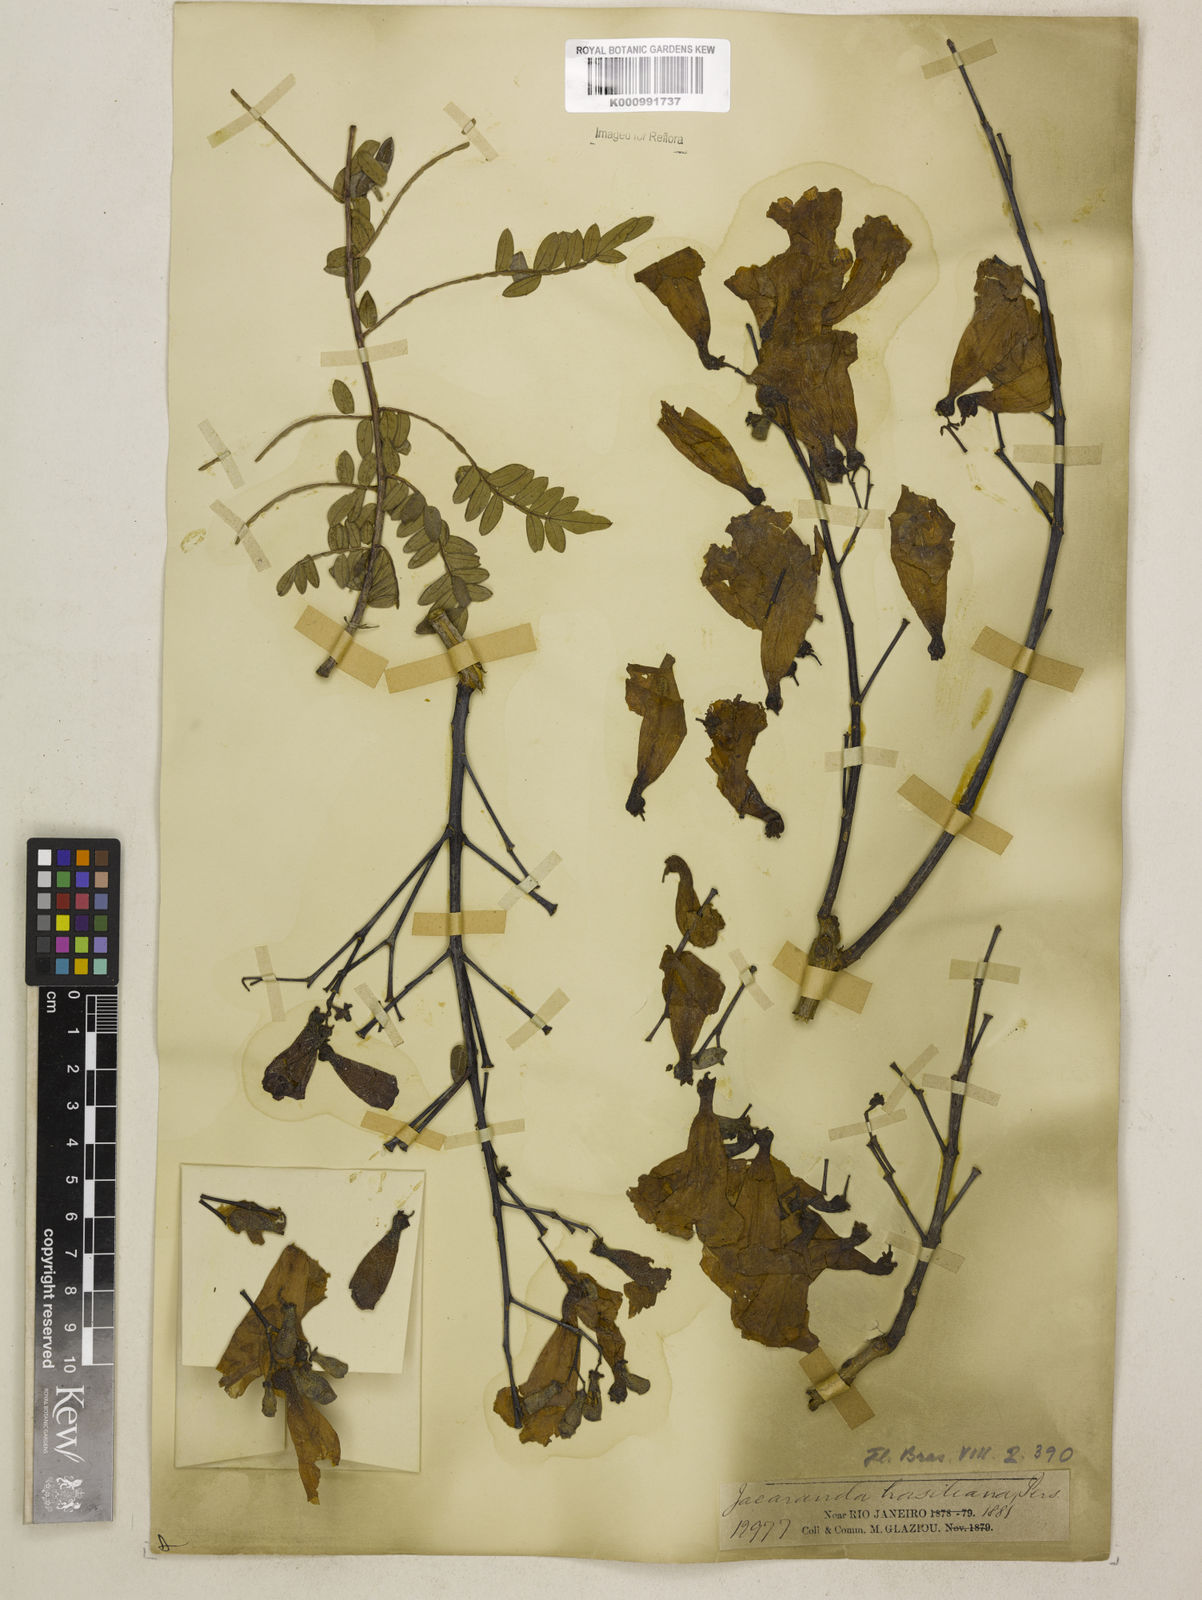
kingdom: Plantae
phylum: Tracheophyta
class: Magnoliopsida
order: Lamiales
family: Bignoniaceae
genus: Jacaranda
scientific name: Jacaranda brasiliana
